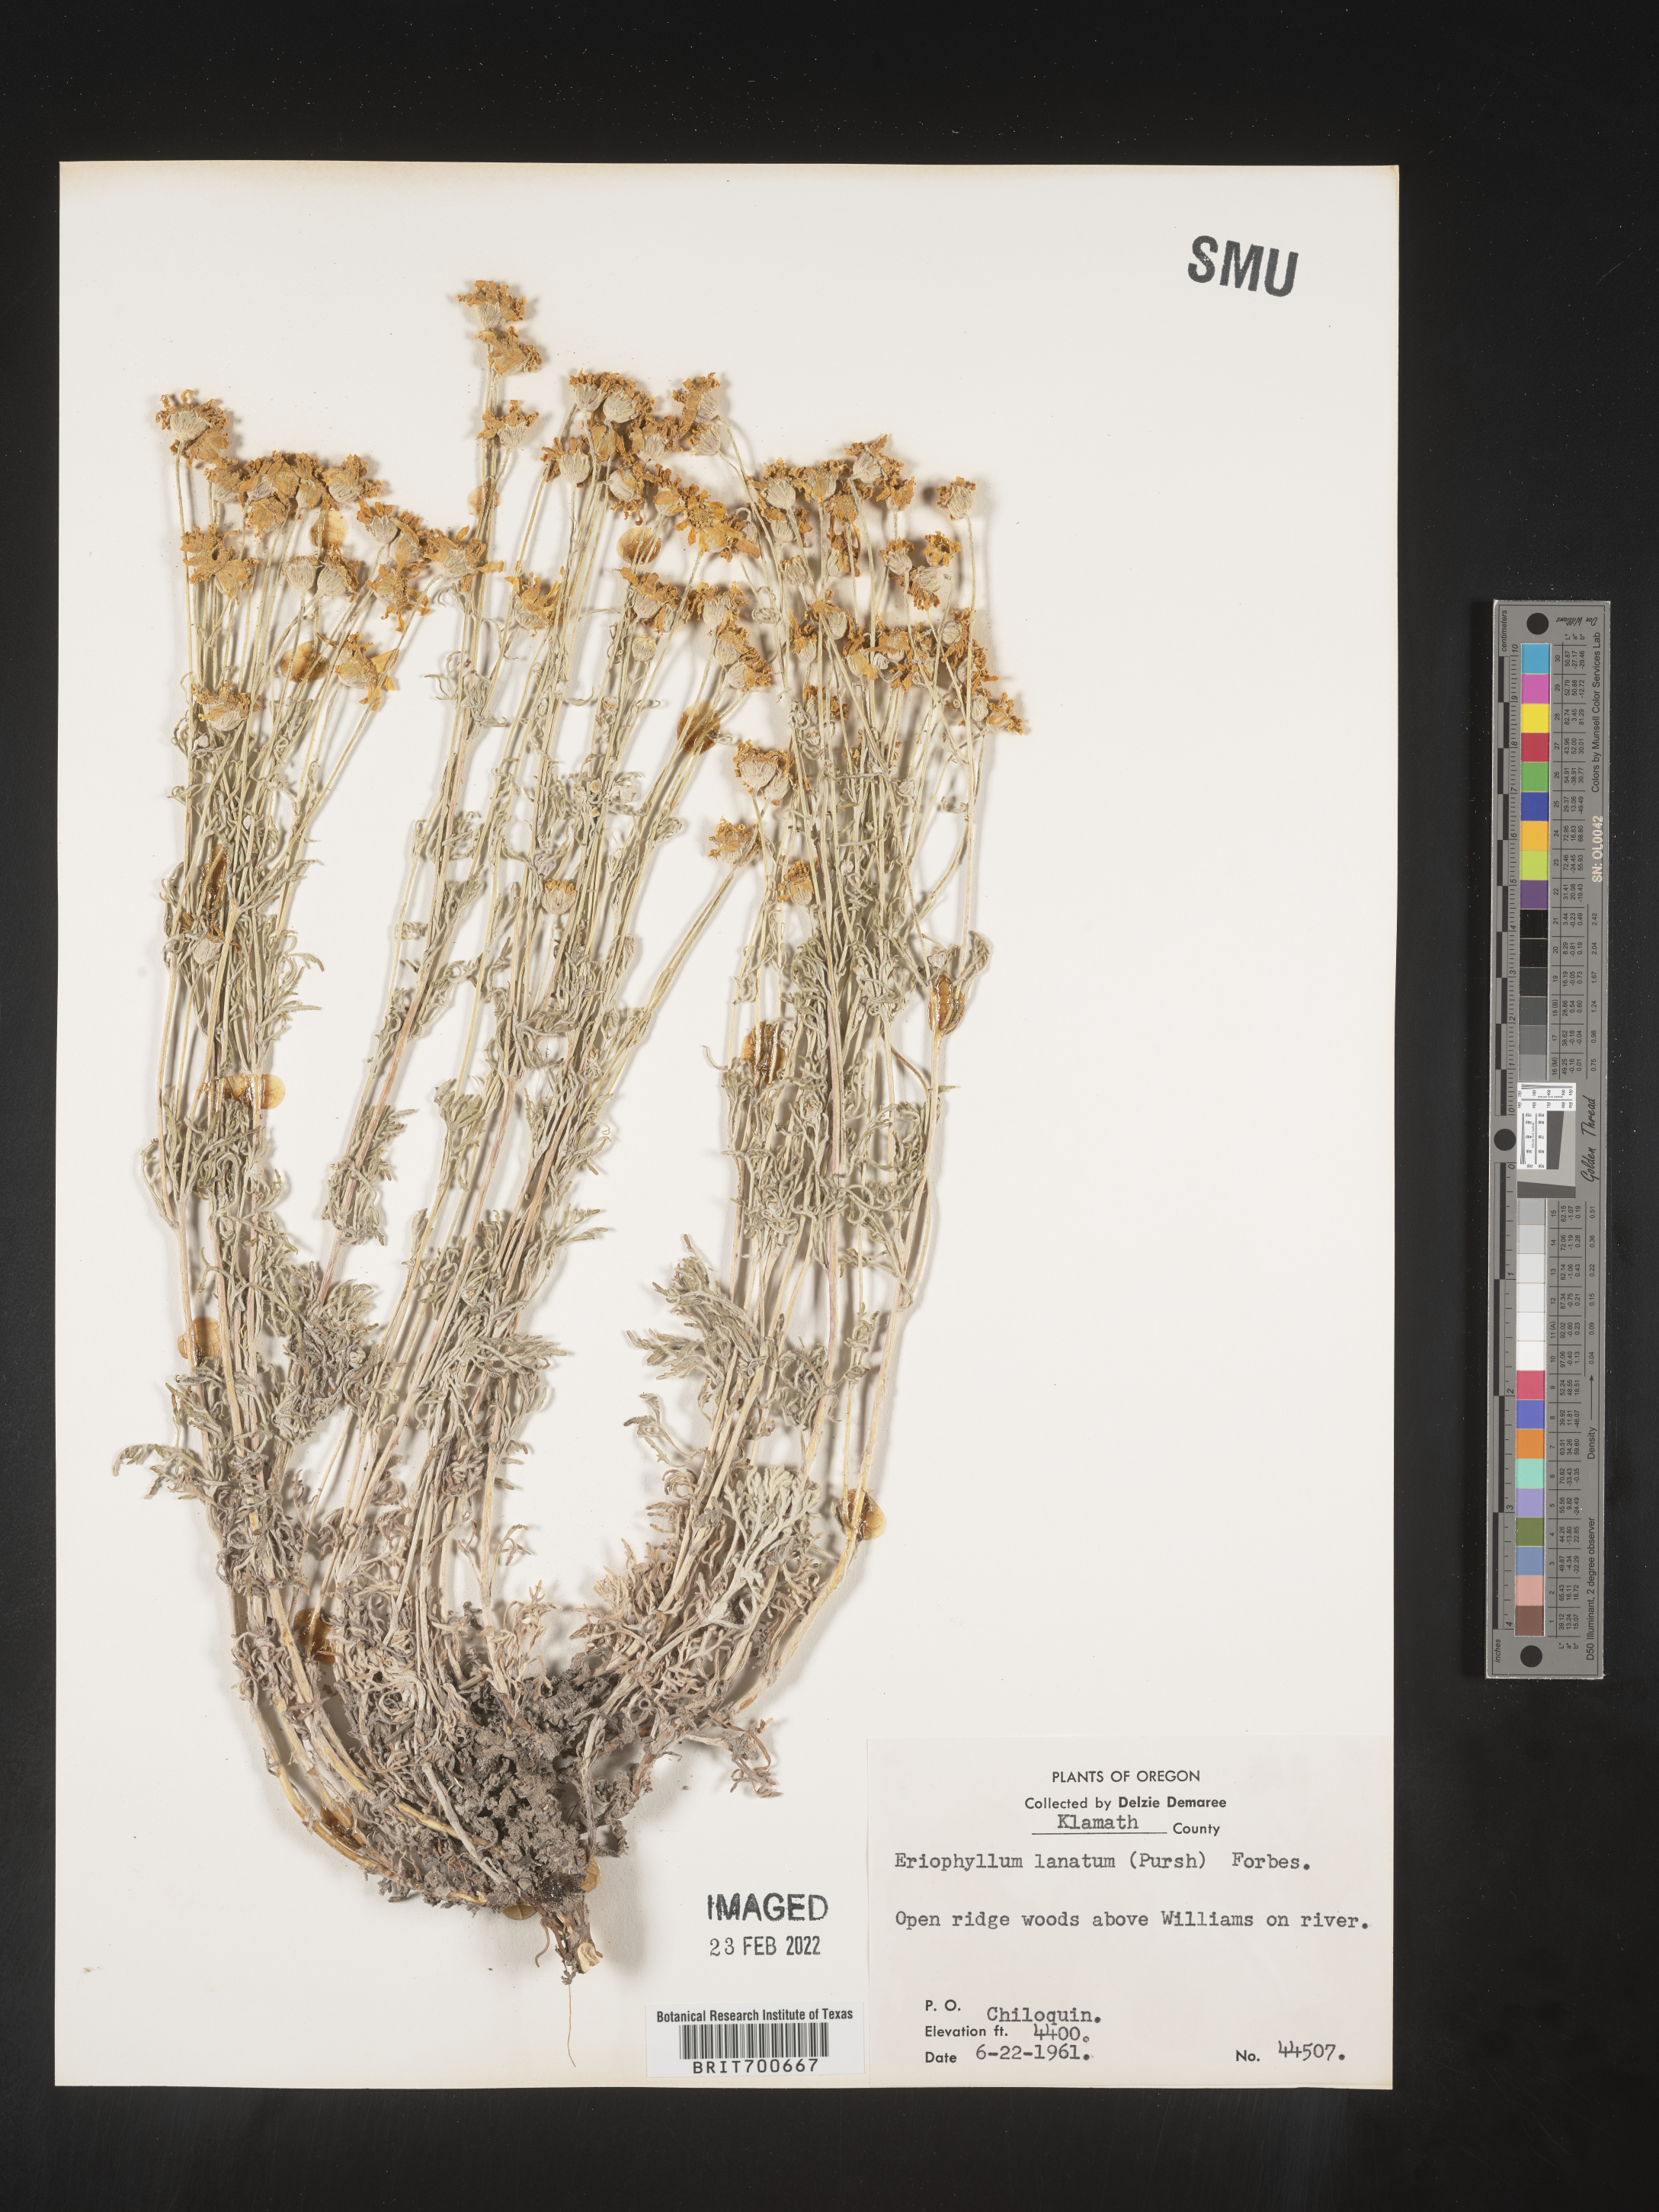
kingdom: Plantae
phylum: Tracheophyta
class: Magnoliopsida
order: Asterales
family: Asteraceae
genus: Eriophyllum
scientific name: Eriophyllum lanatum
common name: Common woolly-sunflower
